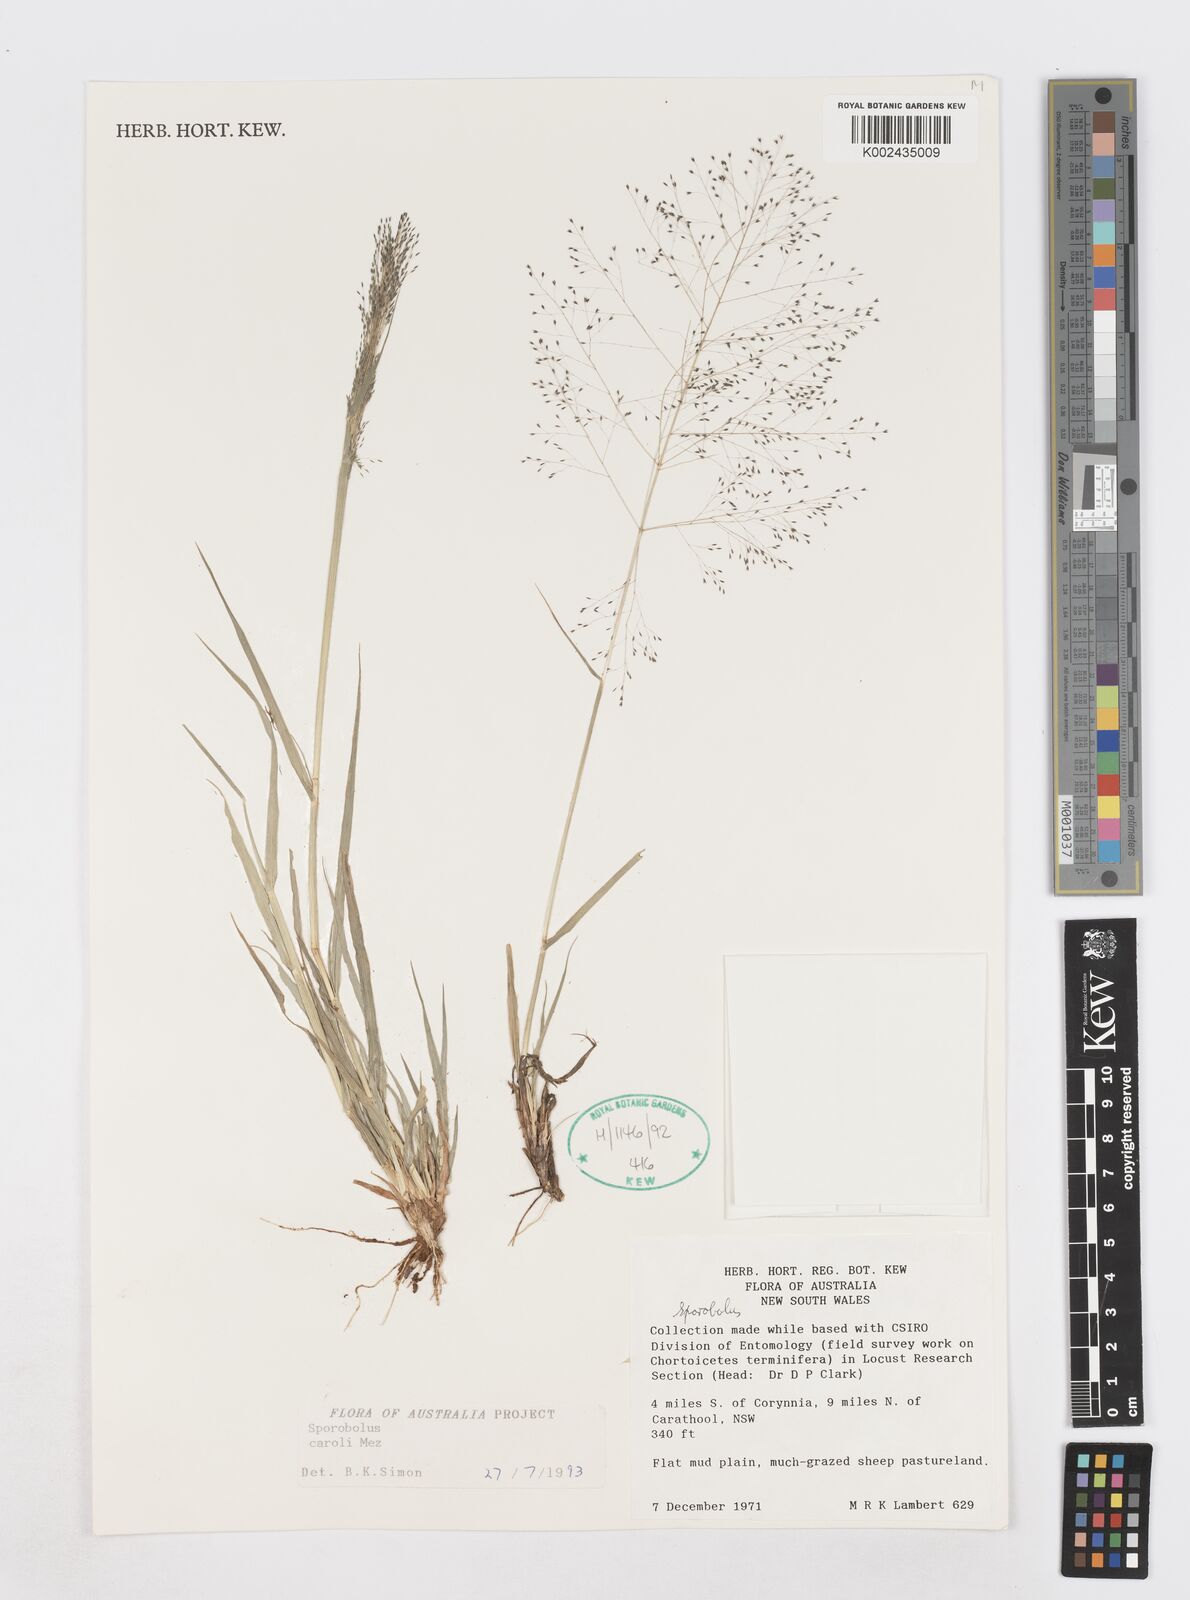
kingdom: Plantae
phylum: Tracheophyta
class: Liliopsida
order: Poales
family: Poaceae
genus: Sporobolus
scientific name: Sporobolus caroli
